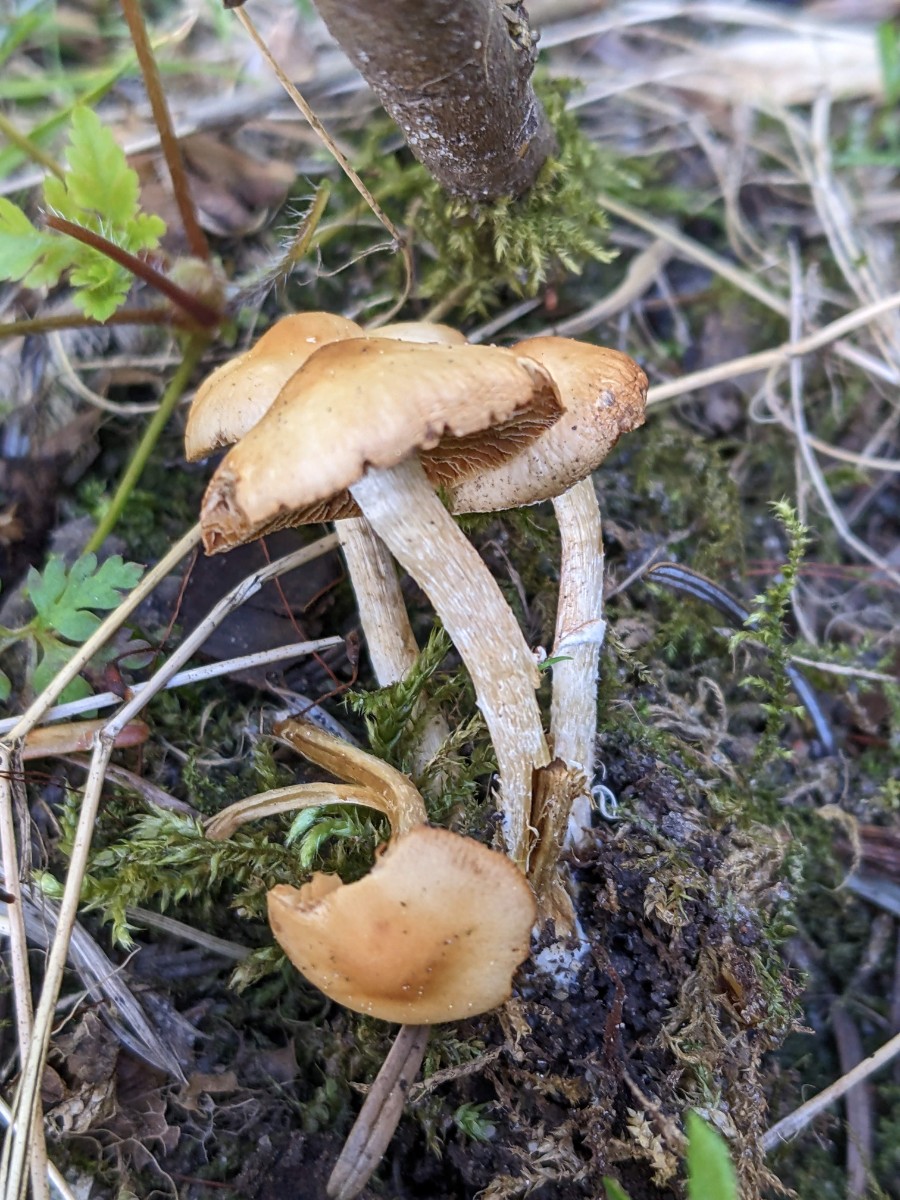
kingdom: Fungi
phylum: Basidiomycota
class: Agaricomycetes
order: Agaricales
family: Bolbitiaceae
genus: Conocybe
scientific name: Conocybe aporos
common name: tidlig dansehat
